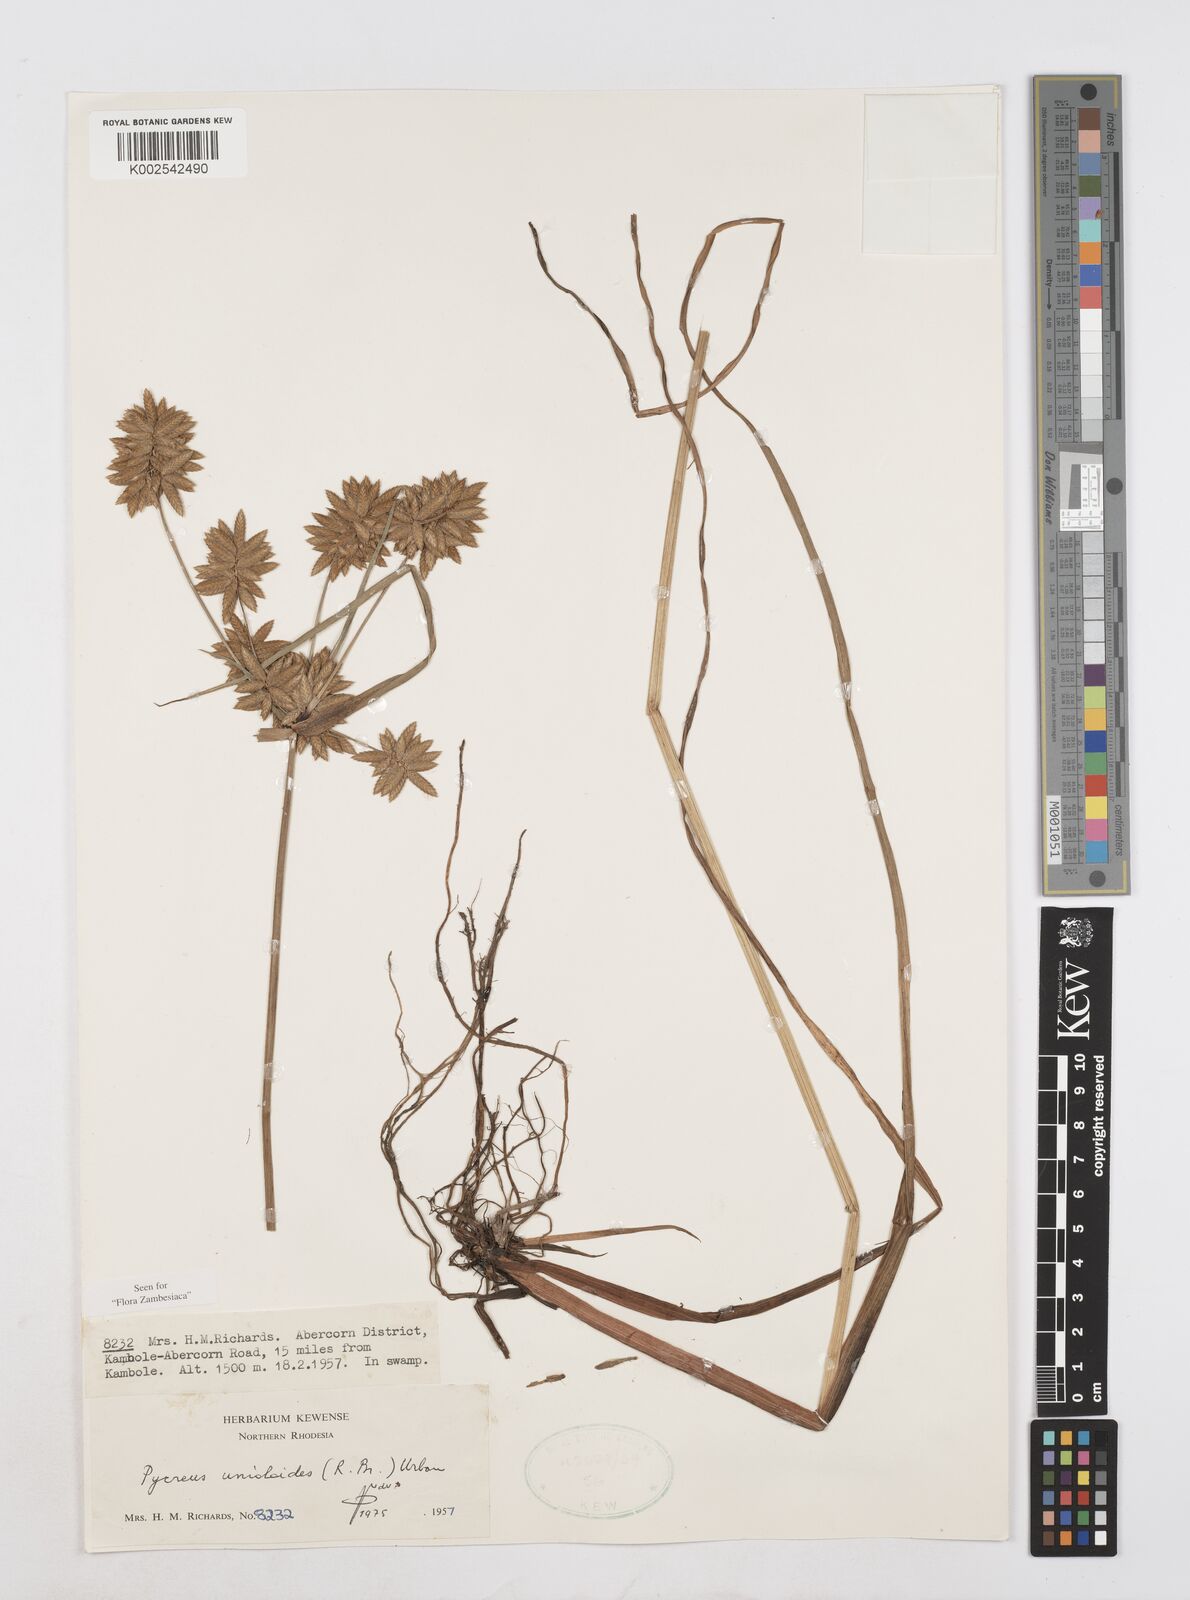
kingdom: Plantae
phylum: Tracheophyta
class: Liliopsida
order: Poales
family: Cyperaceae
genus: Cyperus
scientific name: Cyperus unioloides
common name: Uniola flatsedge
